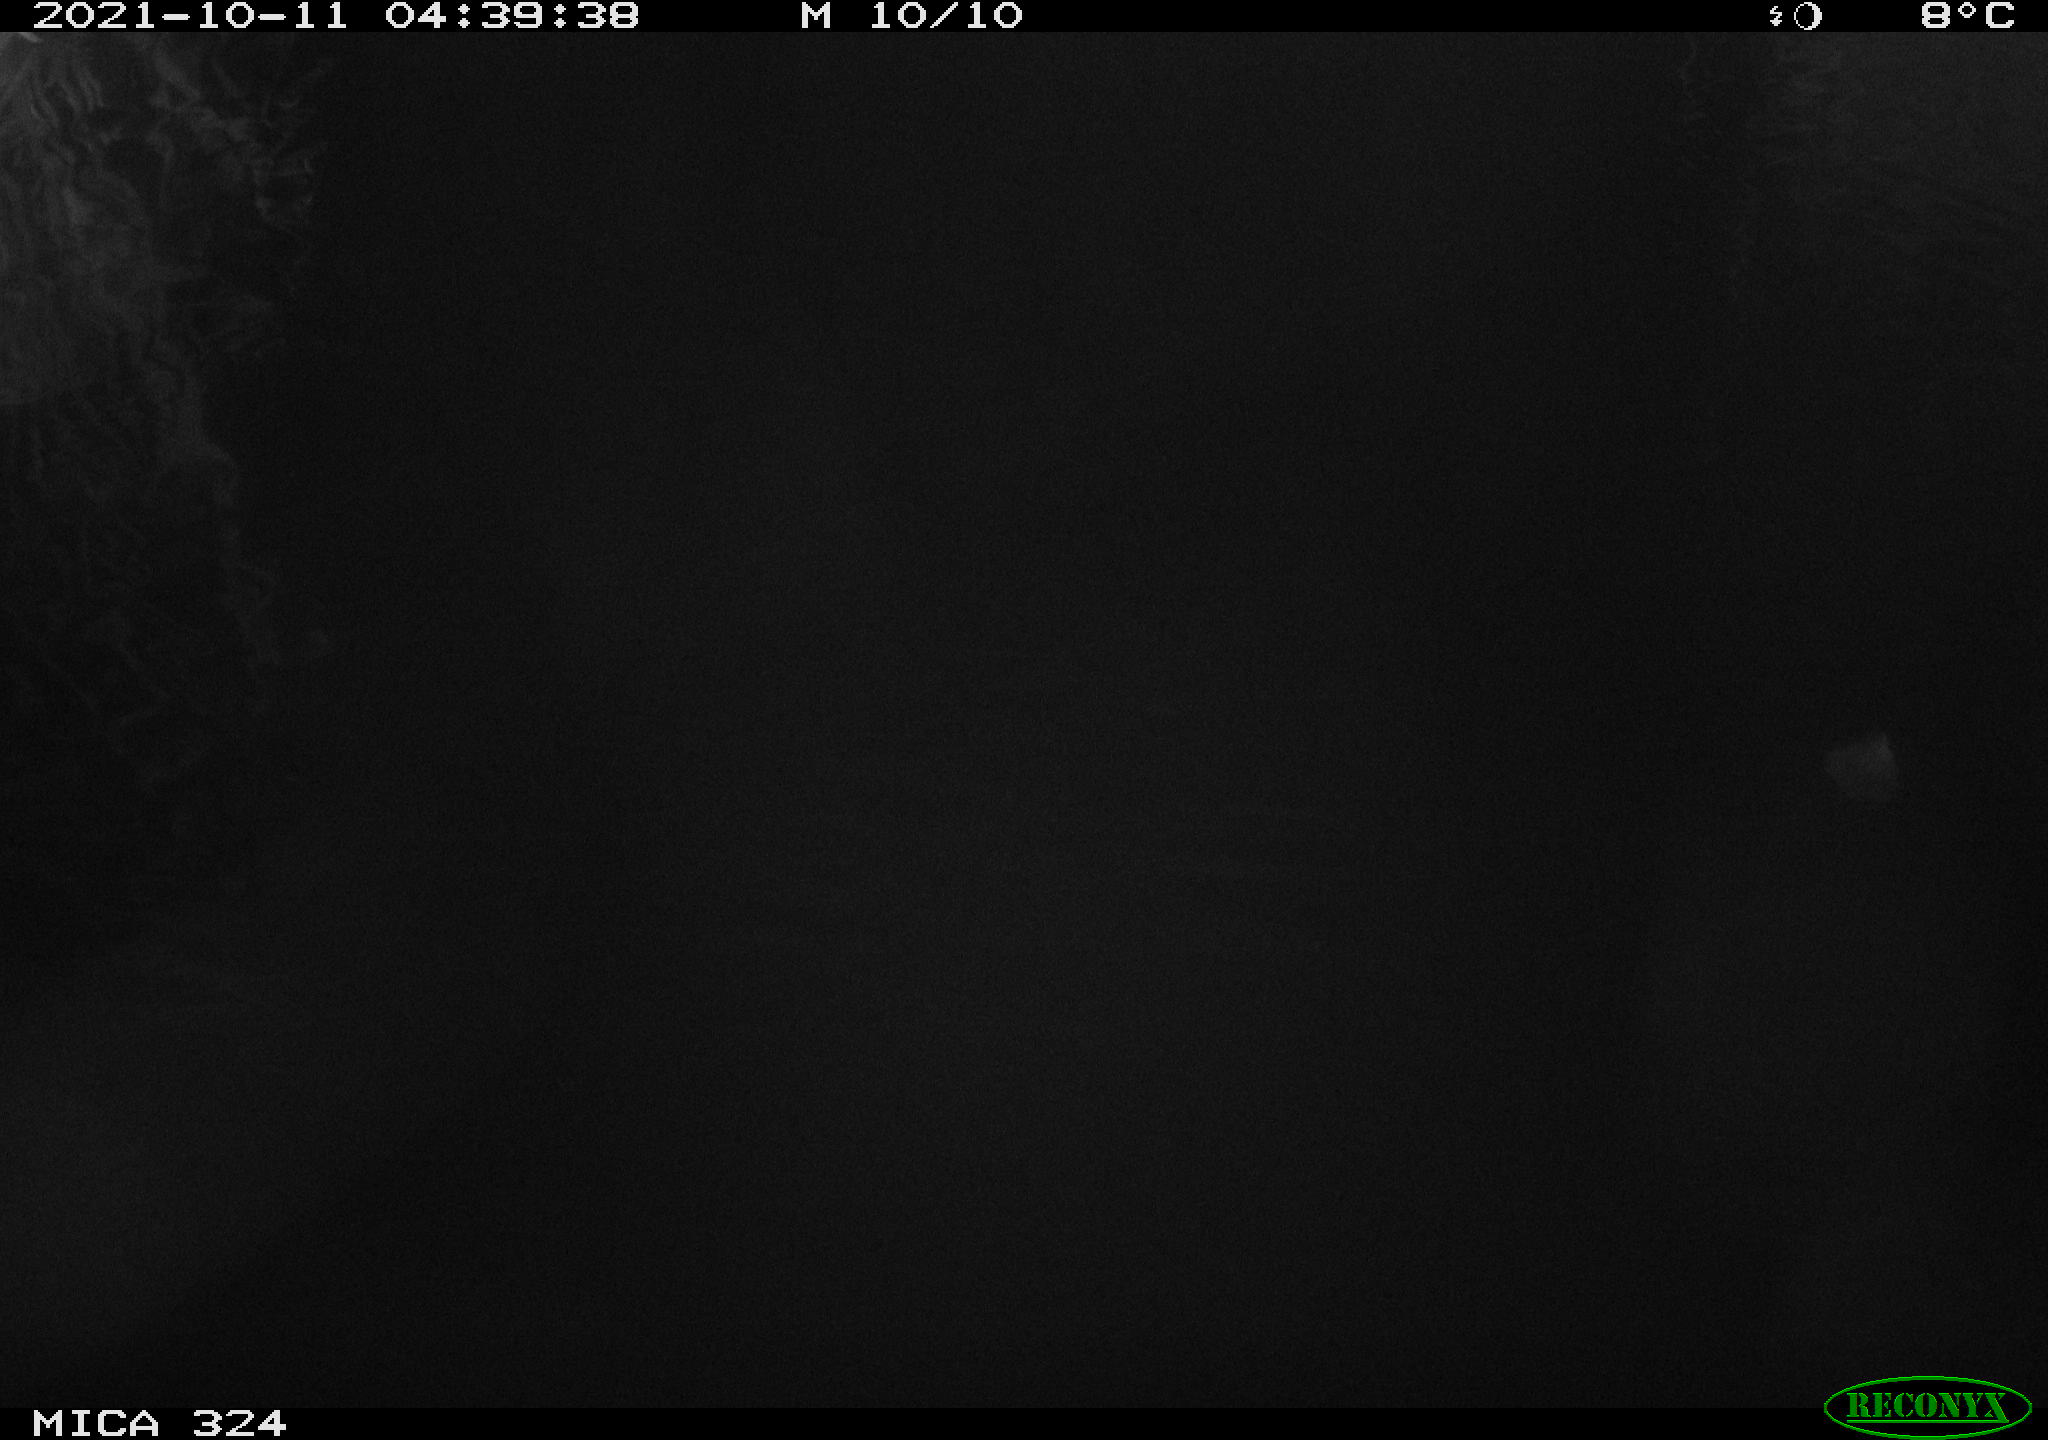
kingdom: Animalia
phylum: Chordata
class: Mammalia
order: Rodentia
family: Cricetidae
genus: Ondatra
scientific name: Ondatra zibethicus
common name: Muskrat
